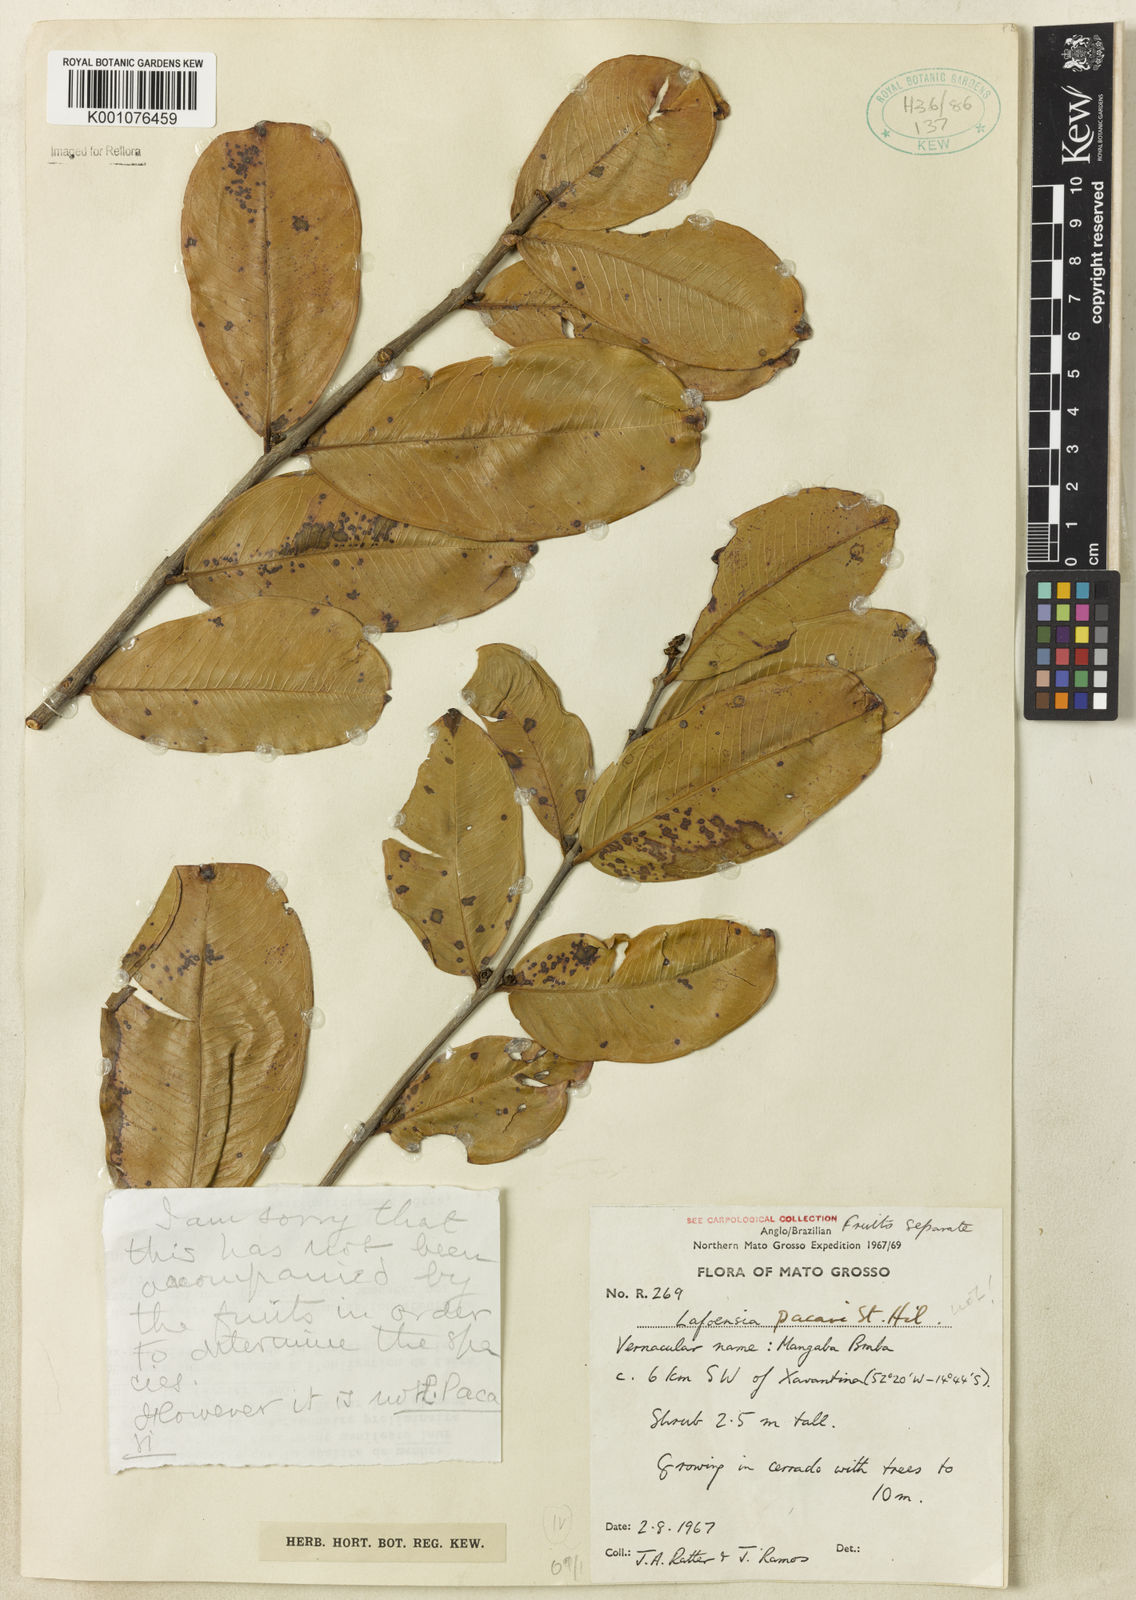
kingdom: Plantae
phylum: Tracheophyta
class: Magnoliopsida
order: Myrtales
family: Lythraceae
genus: Lafoensia
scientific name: Lafoensia
